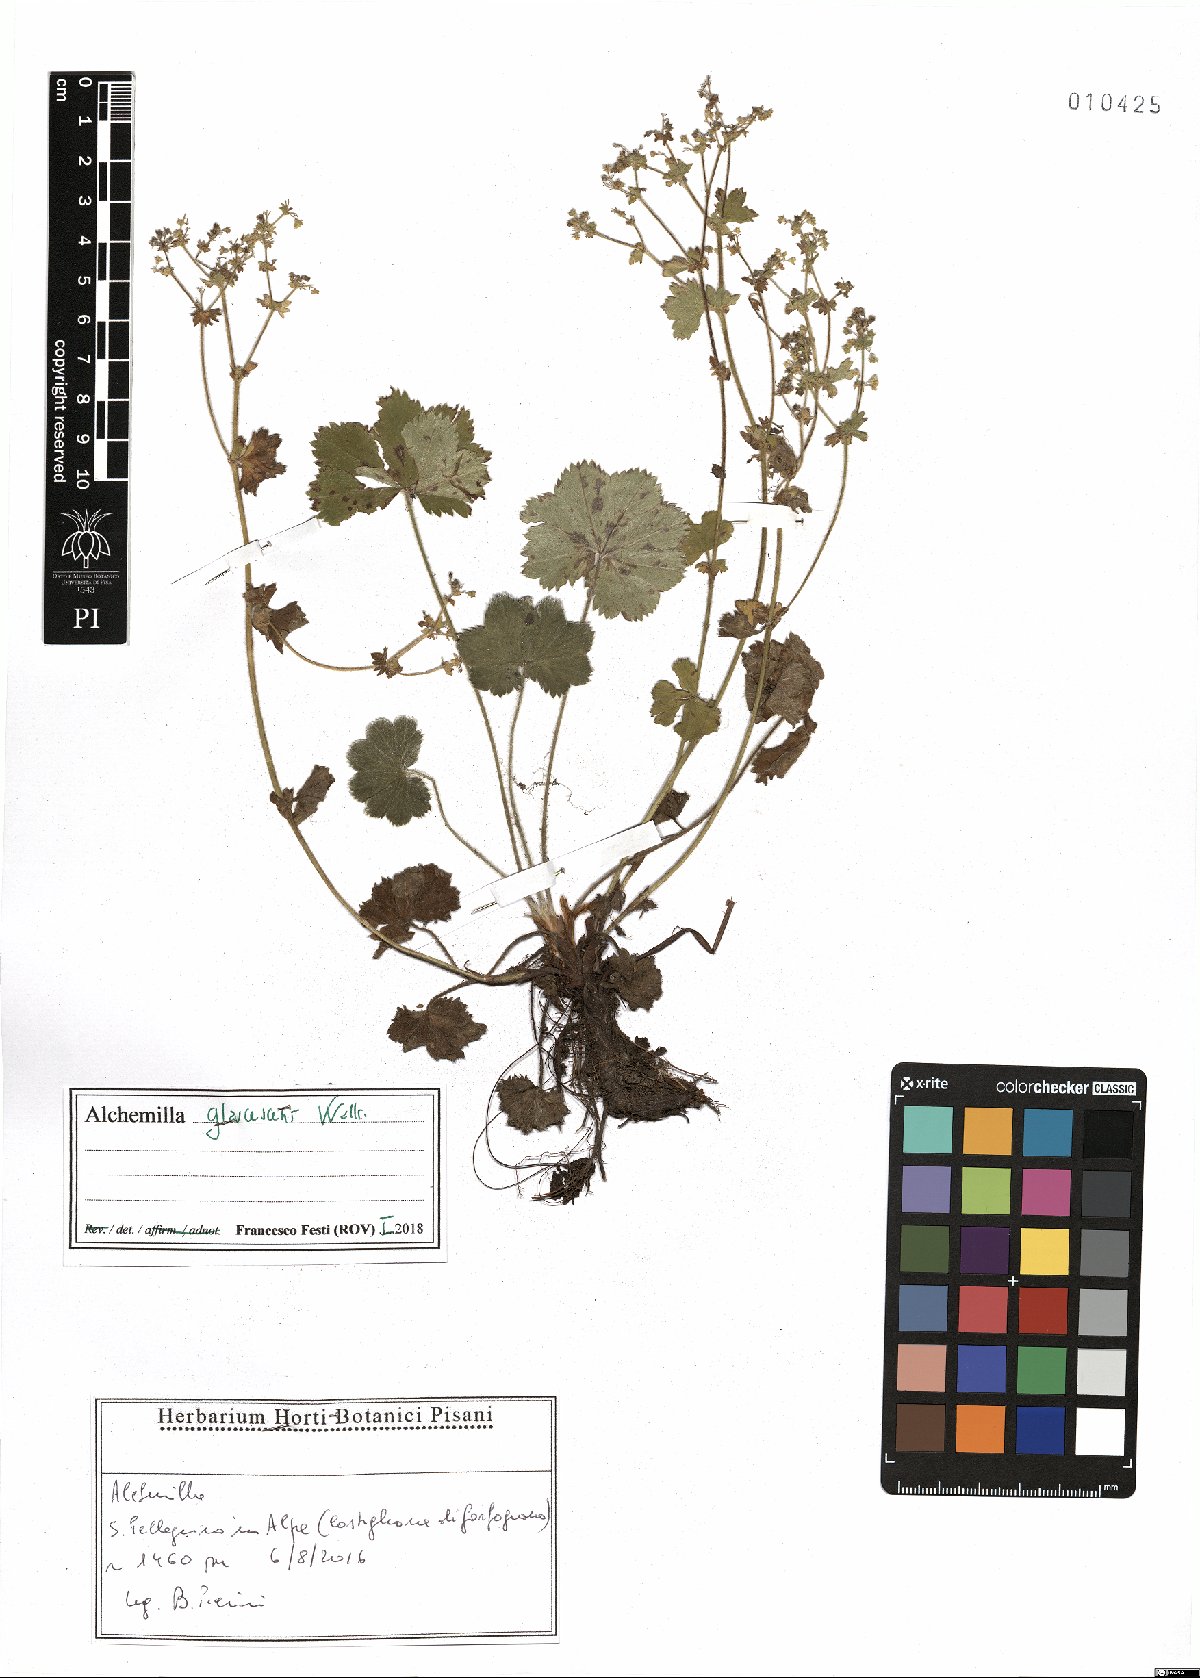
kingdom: Plantae
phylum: Tracheophyta
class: Magnoliopsida
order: Rosales
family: Rosaceae
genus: Alchemilla
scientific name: Alchemilla glaucescens
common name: Silky lady's mantle
